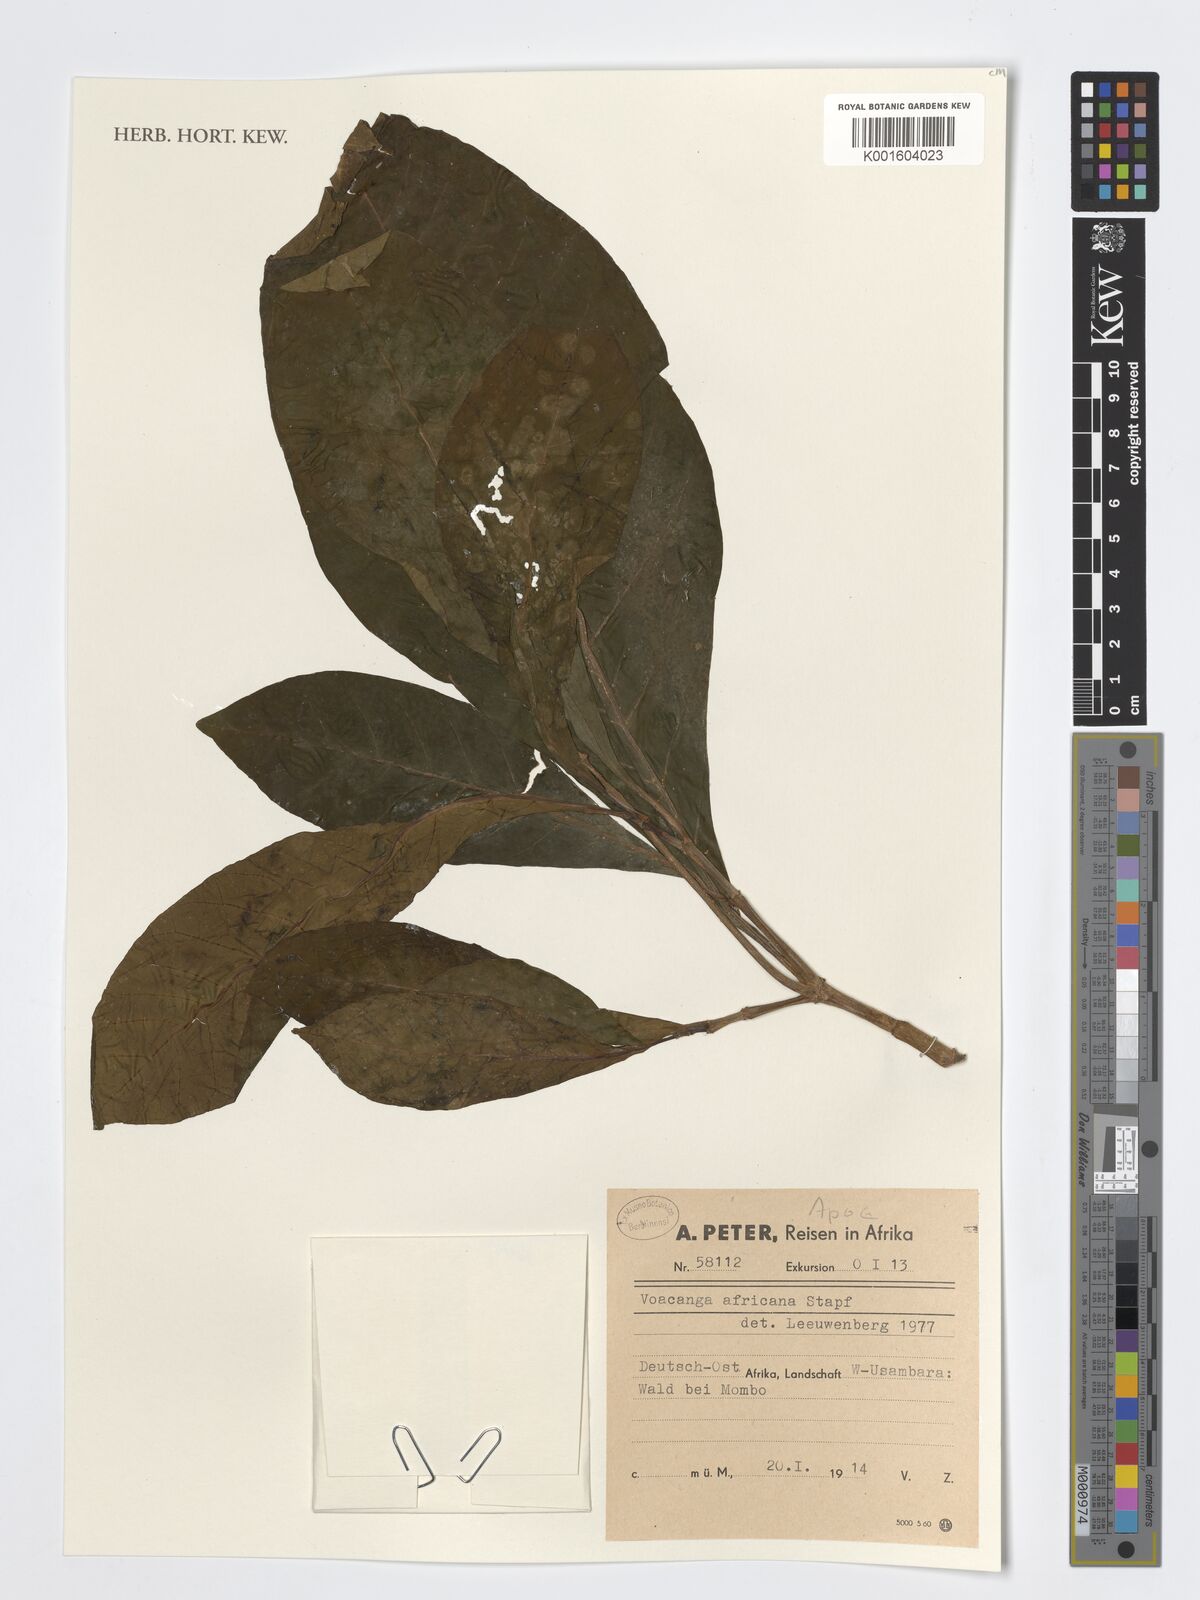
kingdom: Plantae
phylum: Tracheophyta
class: Magnoliopsida
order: Gentianales
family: Apocynaceae
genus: Voacanga
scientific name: Voacanga africana
